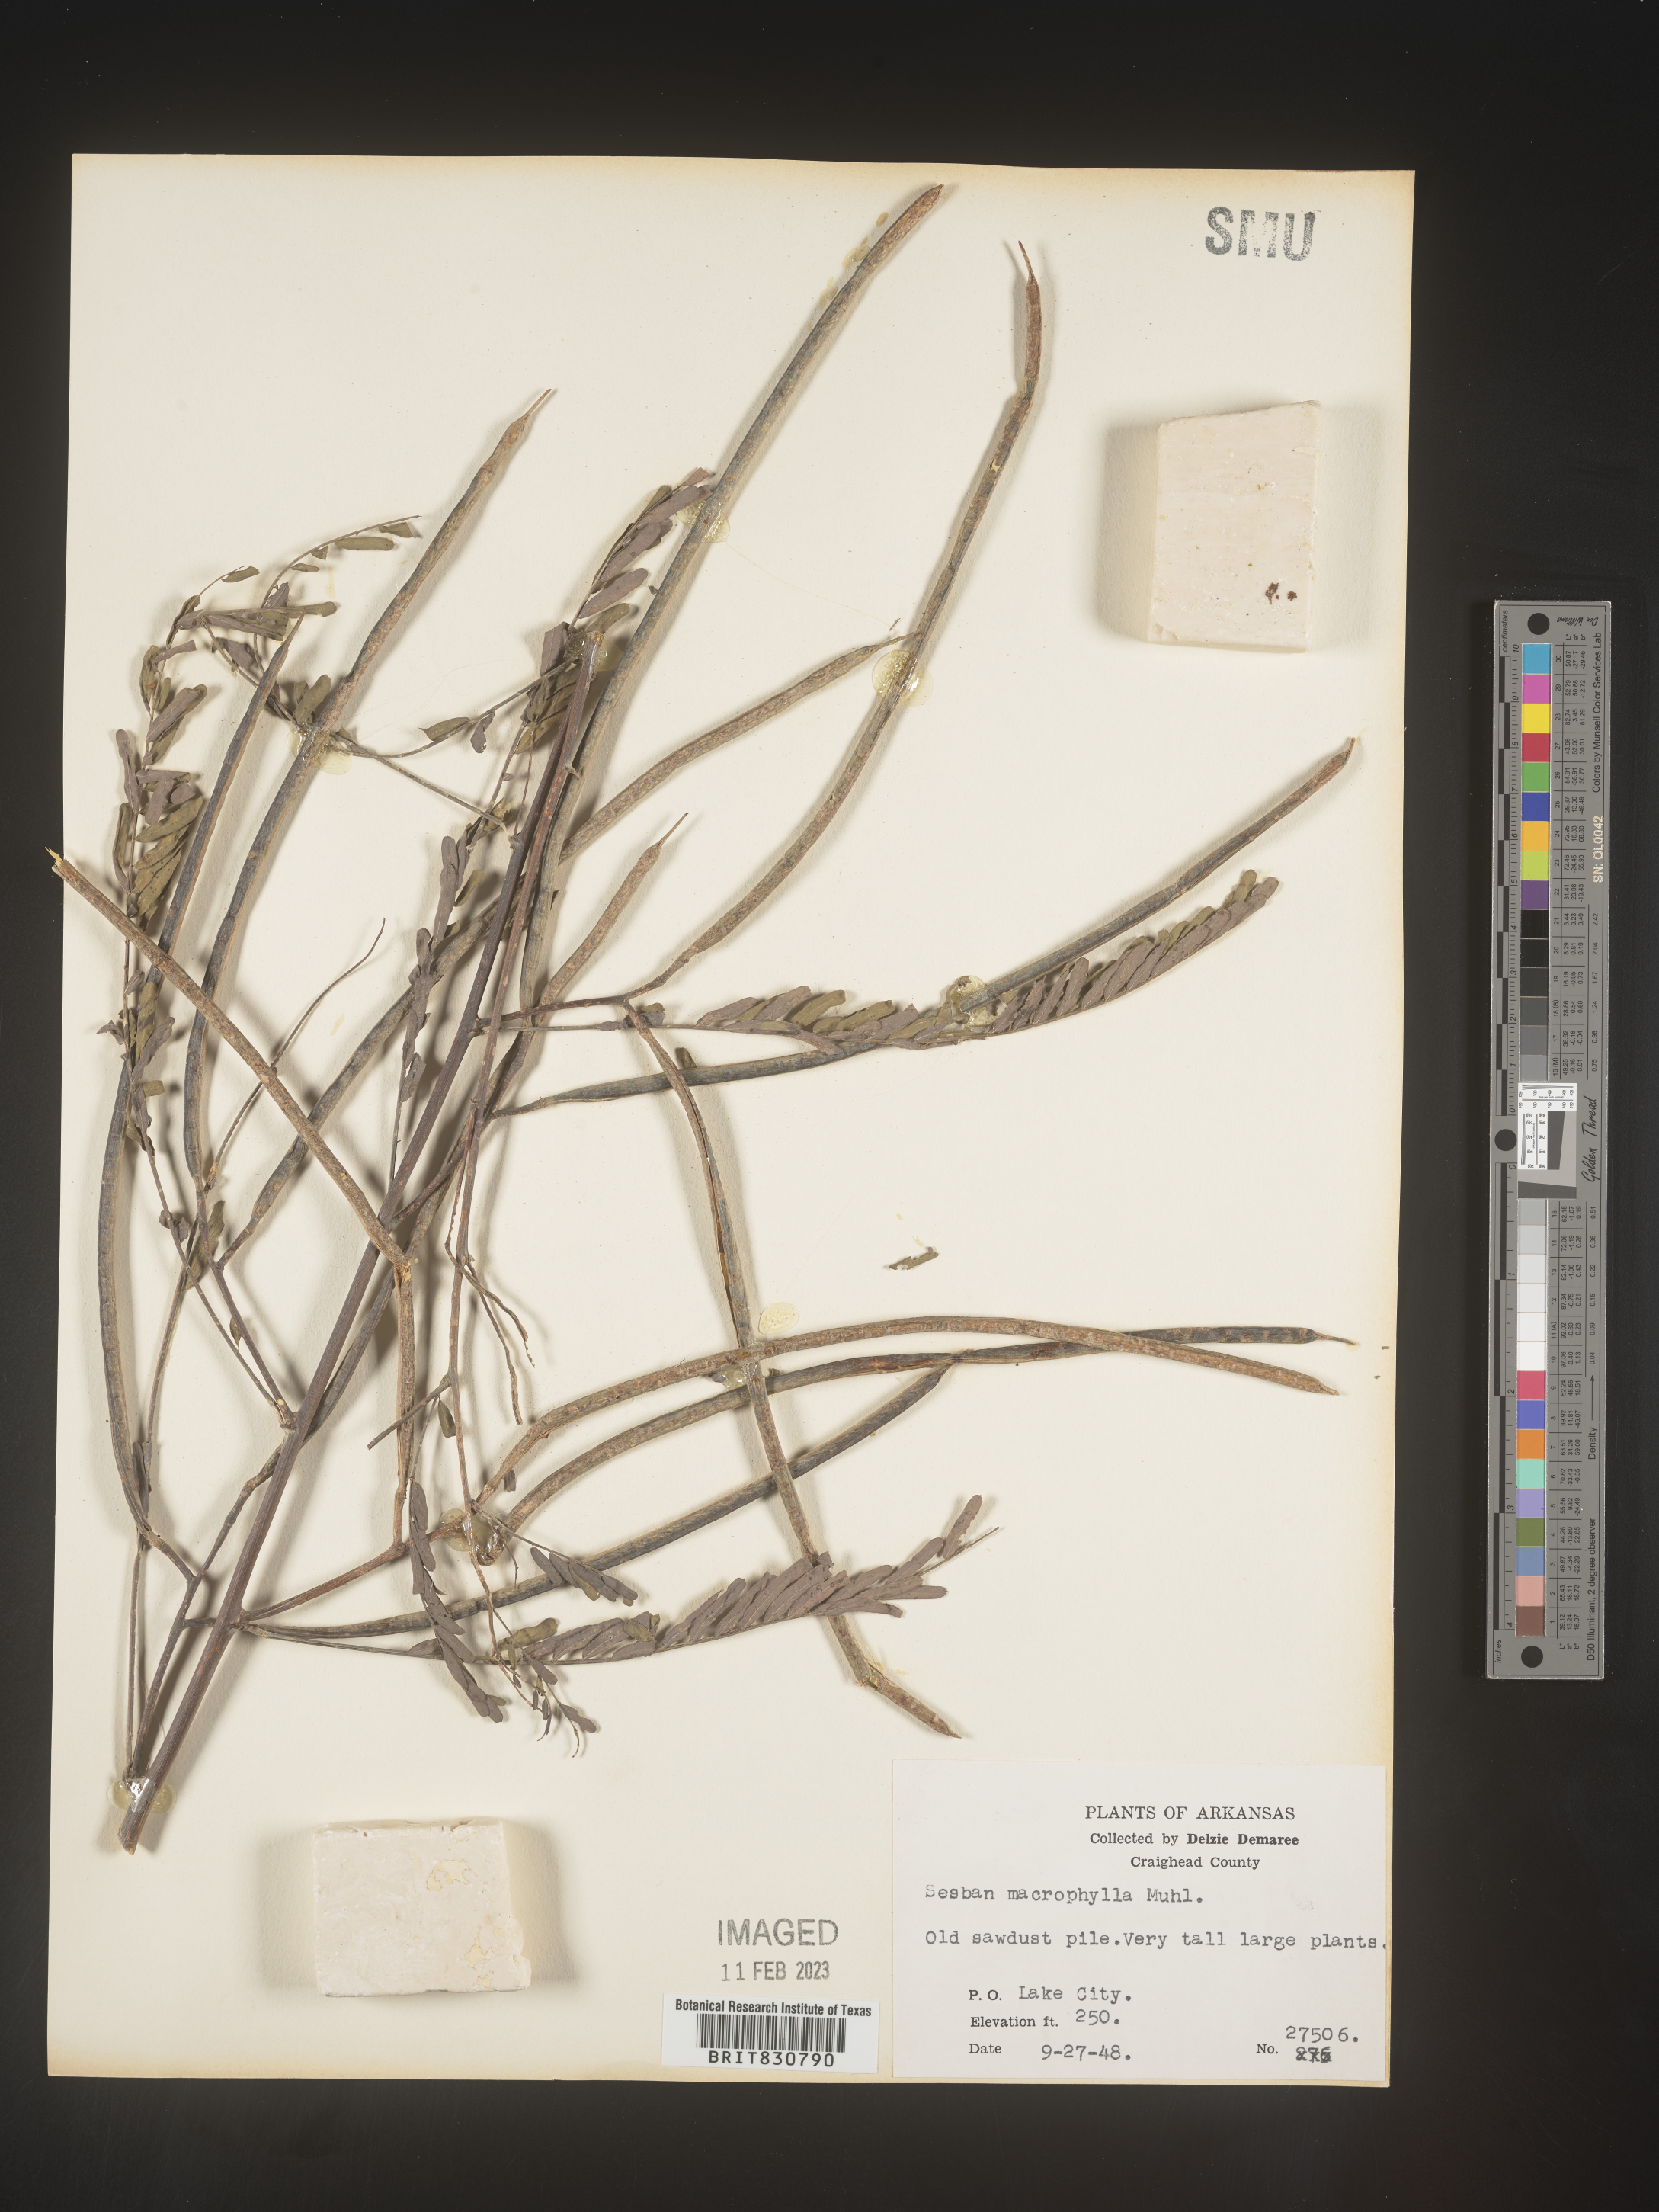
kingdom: Plantae
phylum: Tracheophyta
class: Magnoliopsida
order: Fabales
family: Fabaceae
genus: Sesbania
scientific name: Sesbania vesicaria
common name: Bagpod
